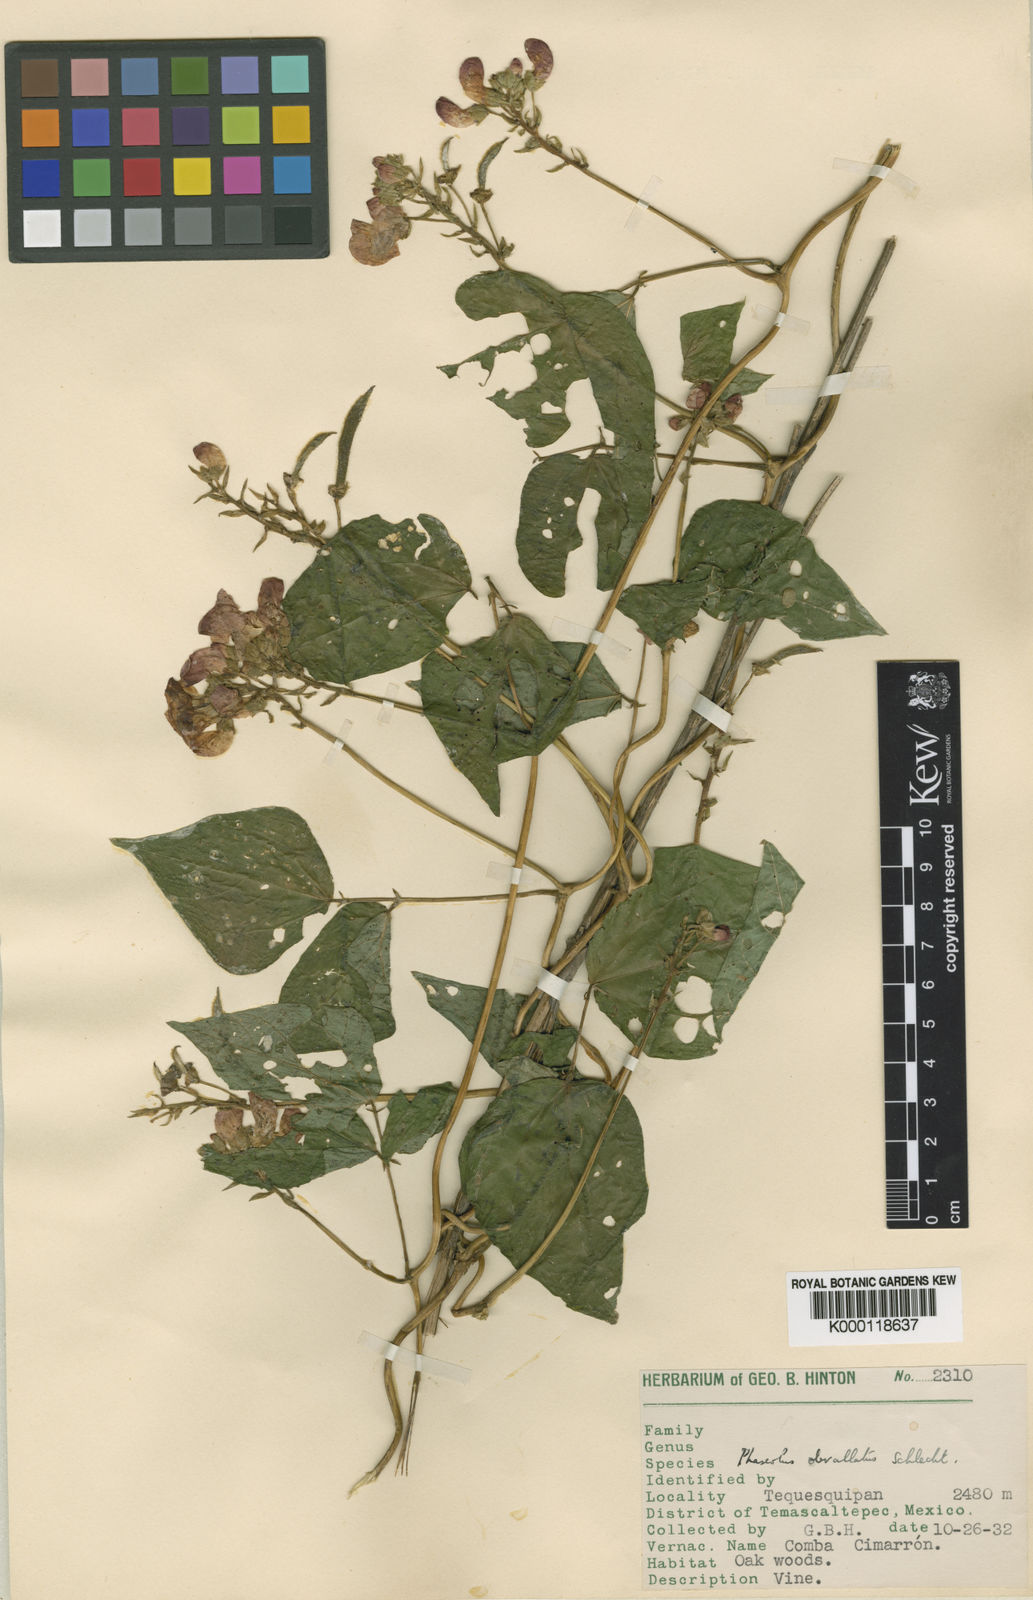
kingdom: Plantae
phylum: Tracheophyta
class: Magnoliopsida
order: Fabales
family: Fabaceae
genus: Phaseolus
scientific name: Phaseolus coccineus
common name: Runner bean
